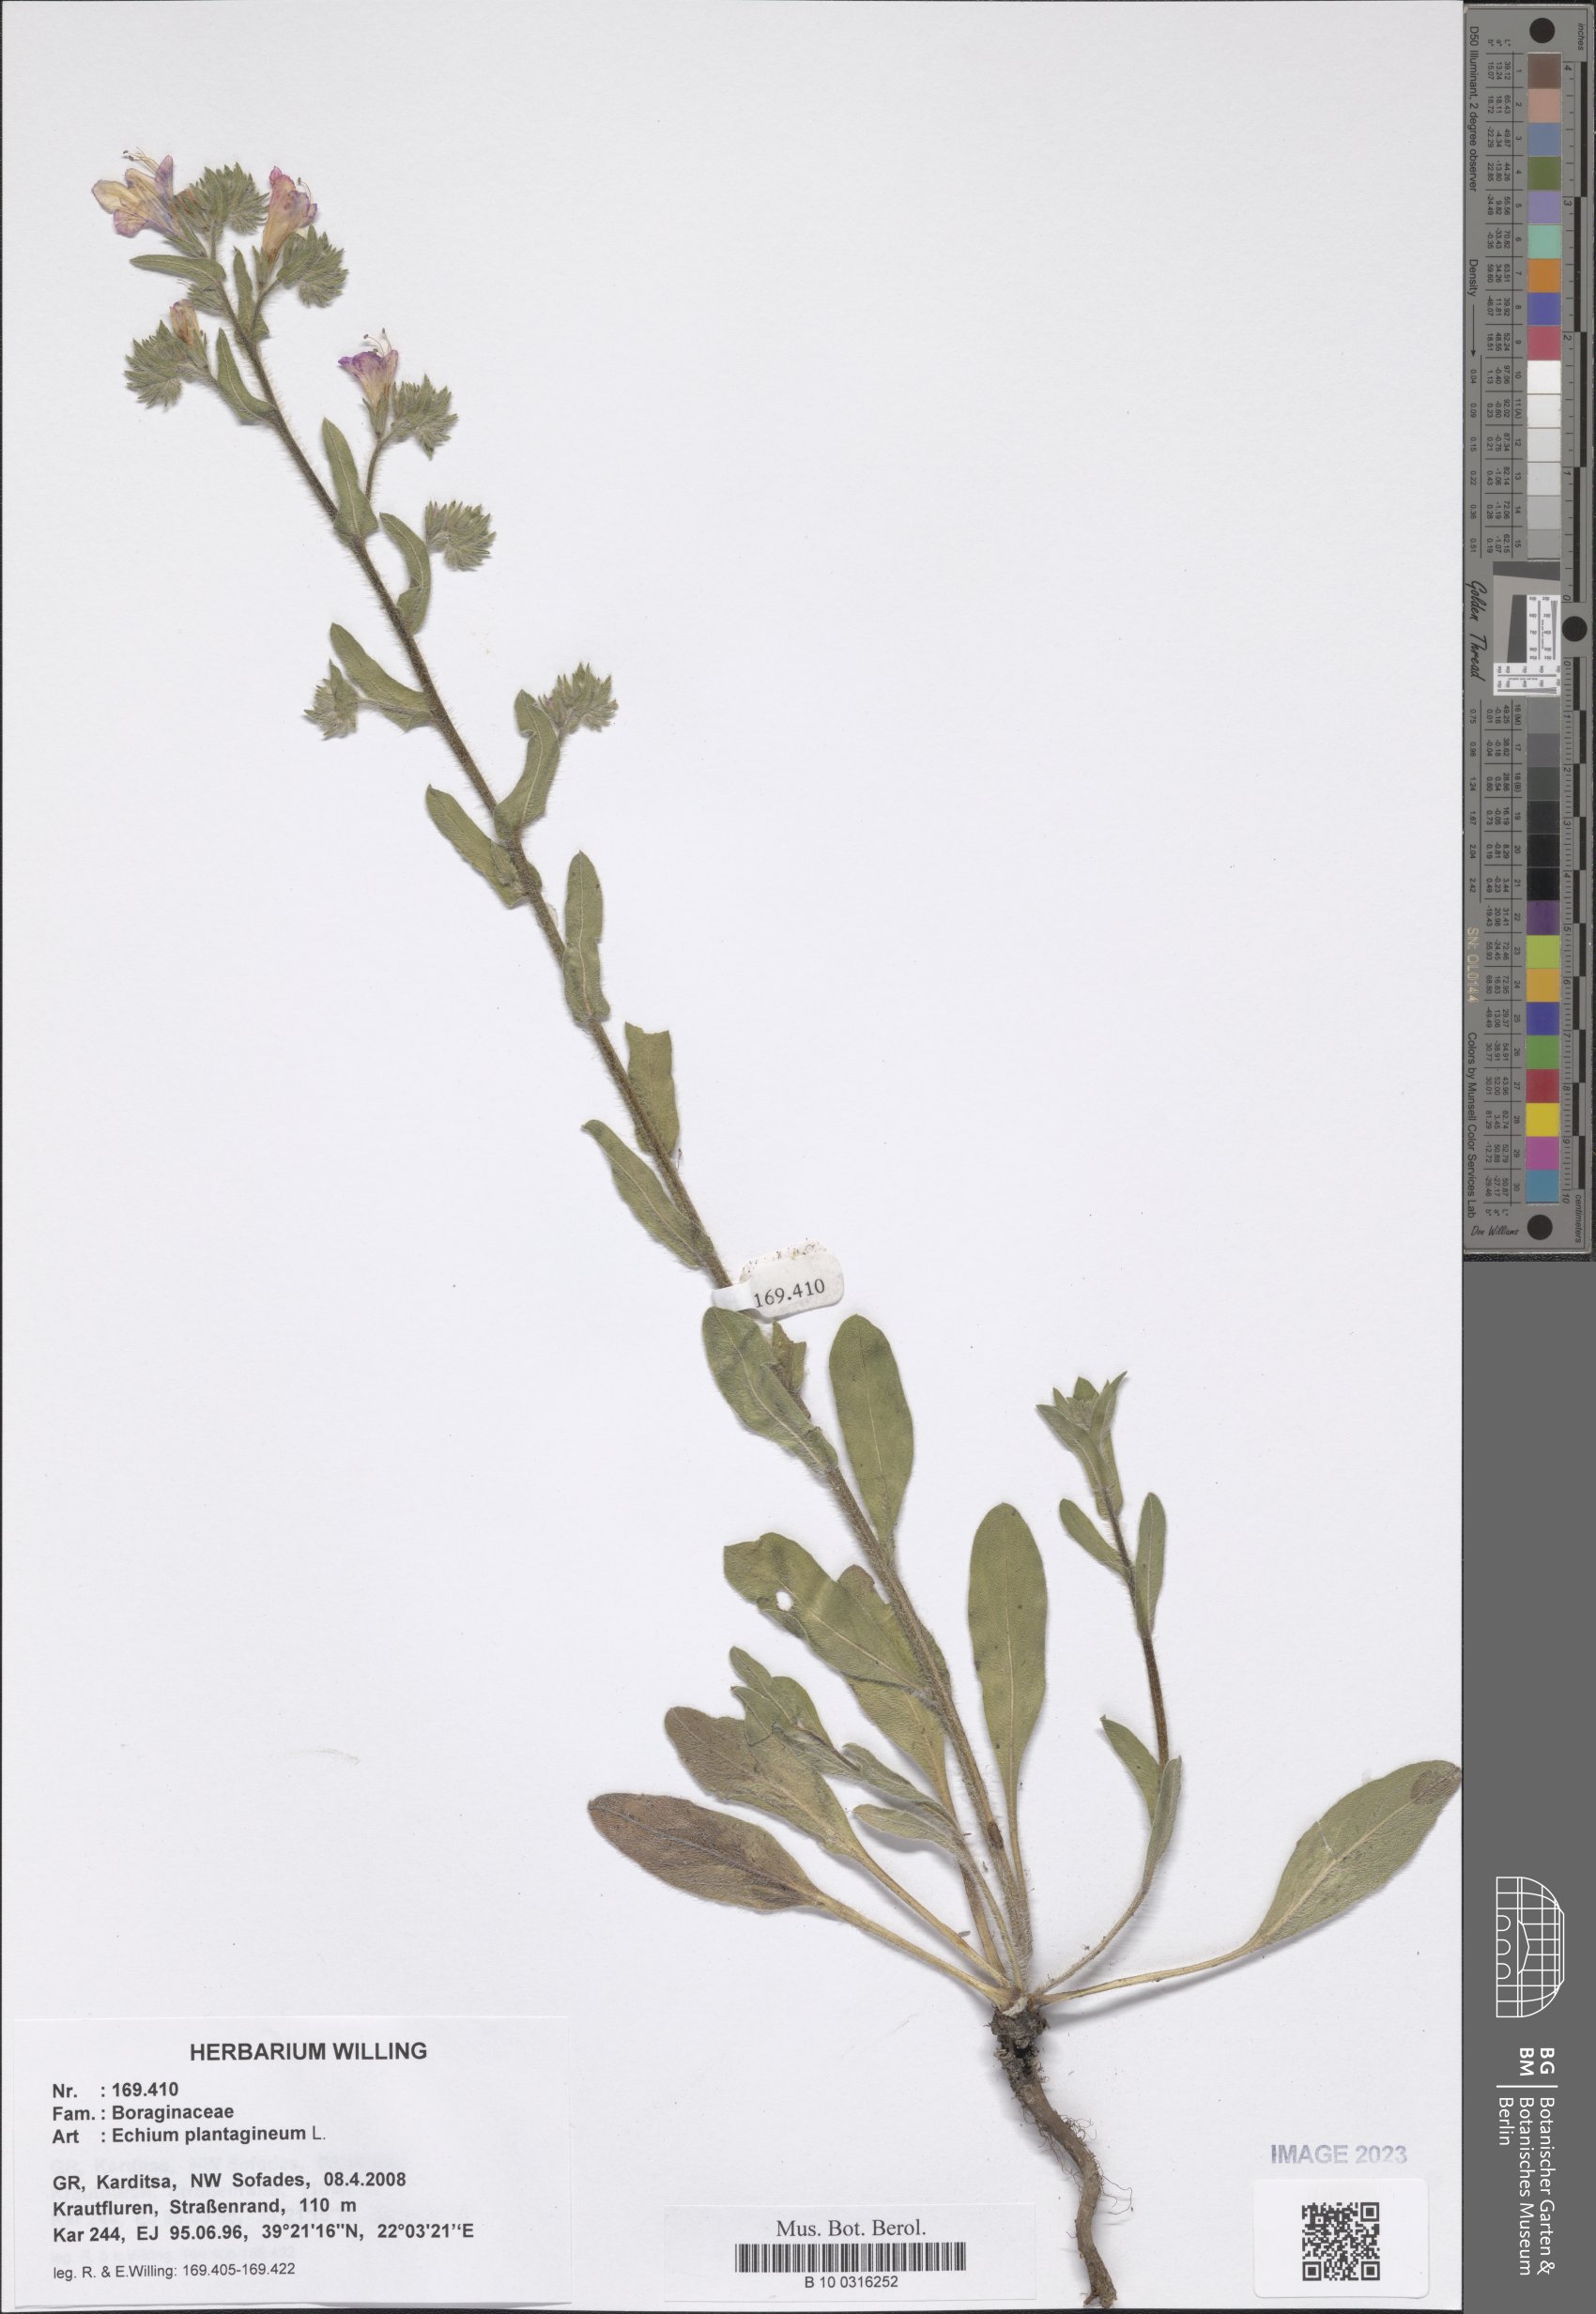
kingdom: Plantae
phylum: Tracheophyta
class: Magnoliopsida
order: Boraginales
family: Boraginaceae
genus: Echium
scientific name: Echium plantagineum
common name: Purple viper's-bugloss
